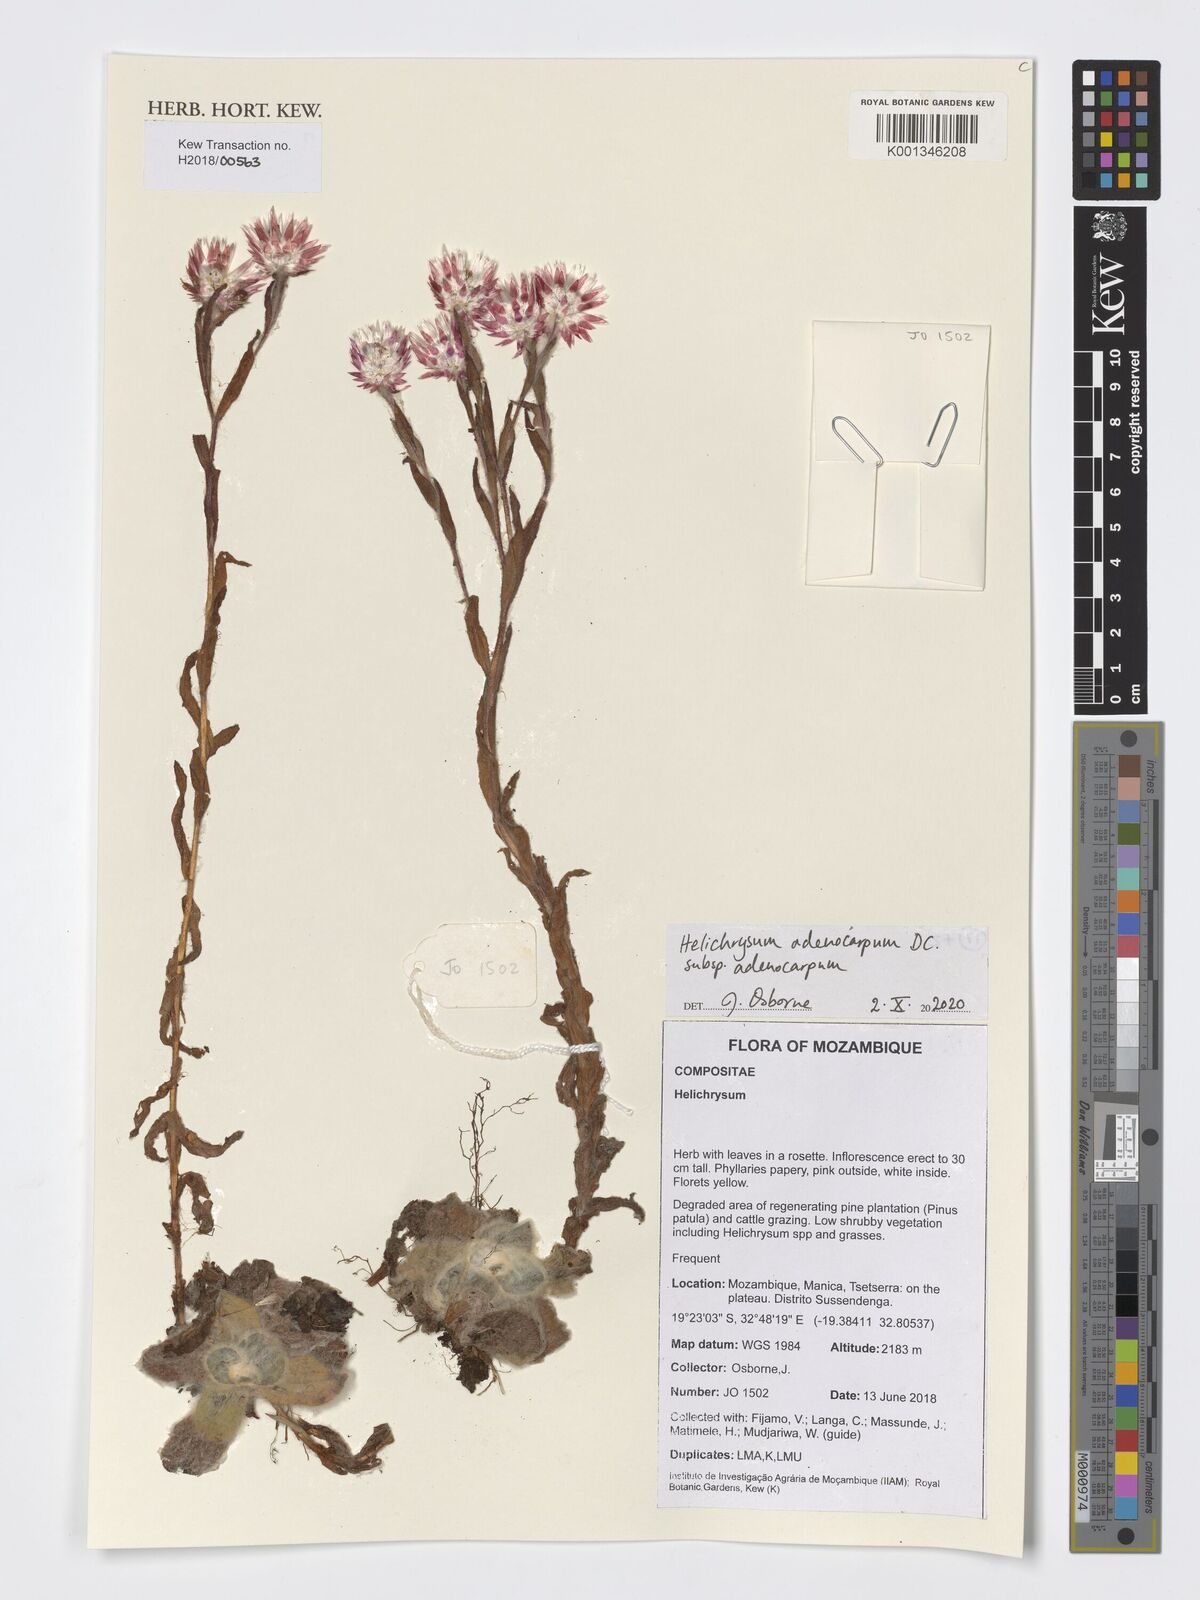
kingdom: Plantae
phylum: Tracheophyta
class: Magnoliopsida
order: Asterales
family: Asteraceae
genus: Helichrysum
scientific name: Helichrysum adenocarpum
